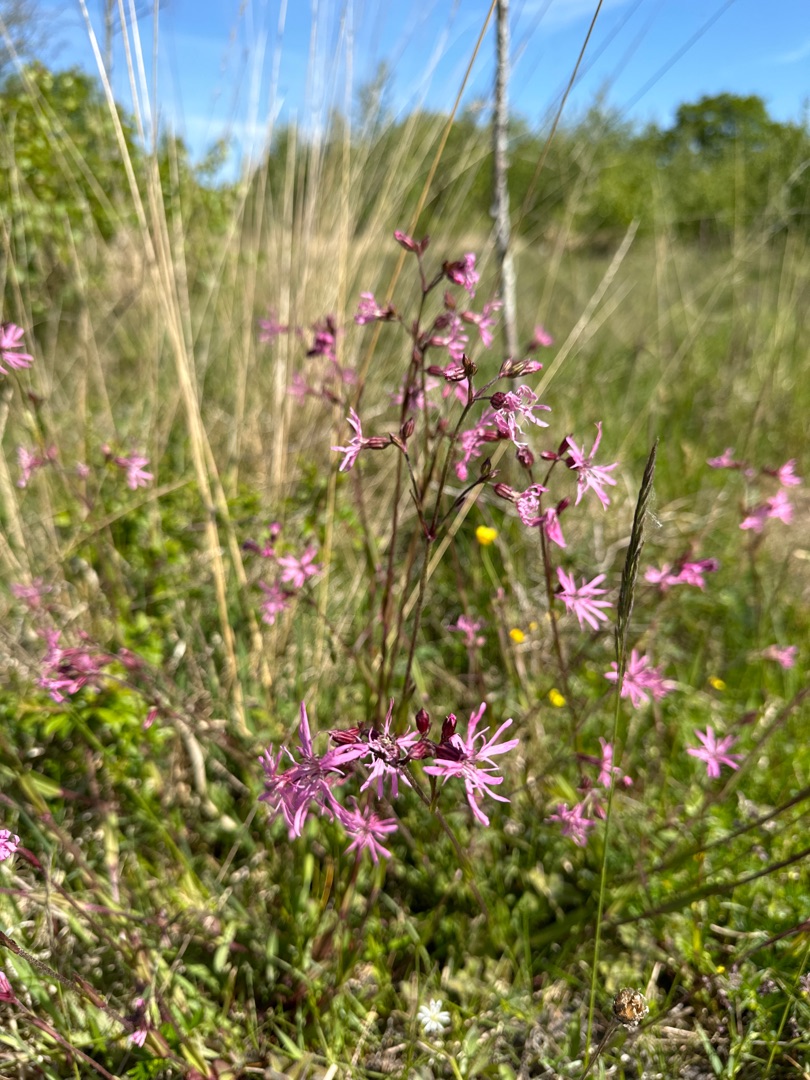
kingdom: Plantae
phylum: Tracheophyta
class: Magnoliopsida
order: Caryophyllales
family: Caryophyllaceae
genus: Silene
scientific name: Silene flos-cuculi
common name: Trævlekrone
